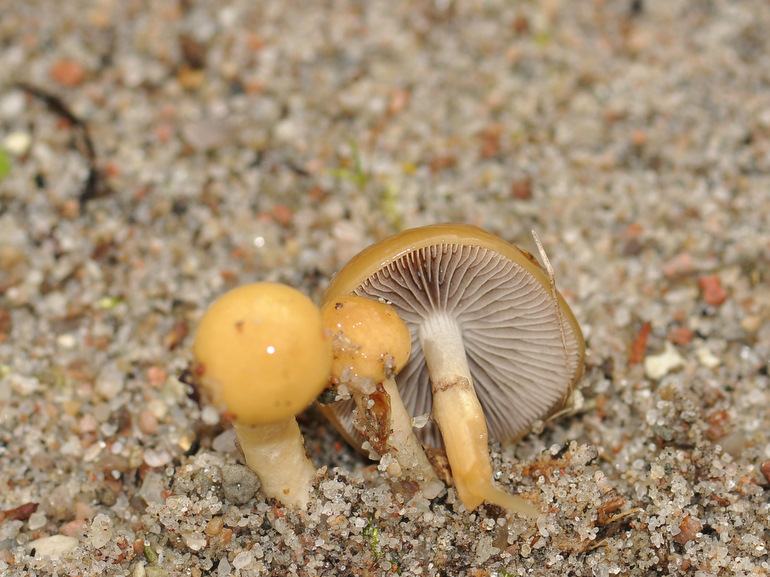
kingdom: Fungi
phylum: Basidiomycota
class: Agaricomycetes
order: Agaricales
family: Strophariaceae
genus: Protostropharia
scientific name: Protostropharia semiglobata
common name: halvkugleformet bredblad
